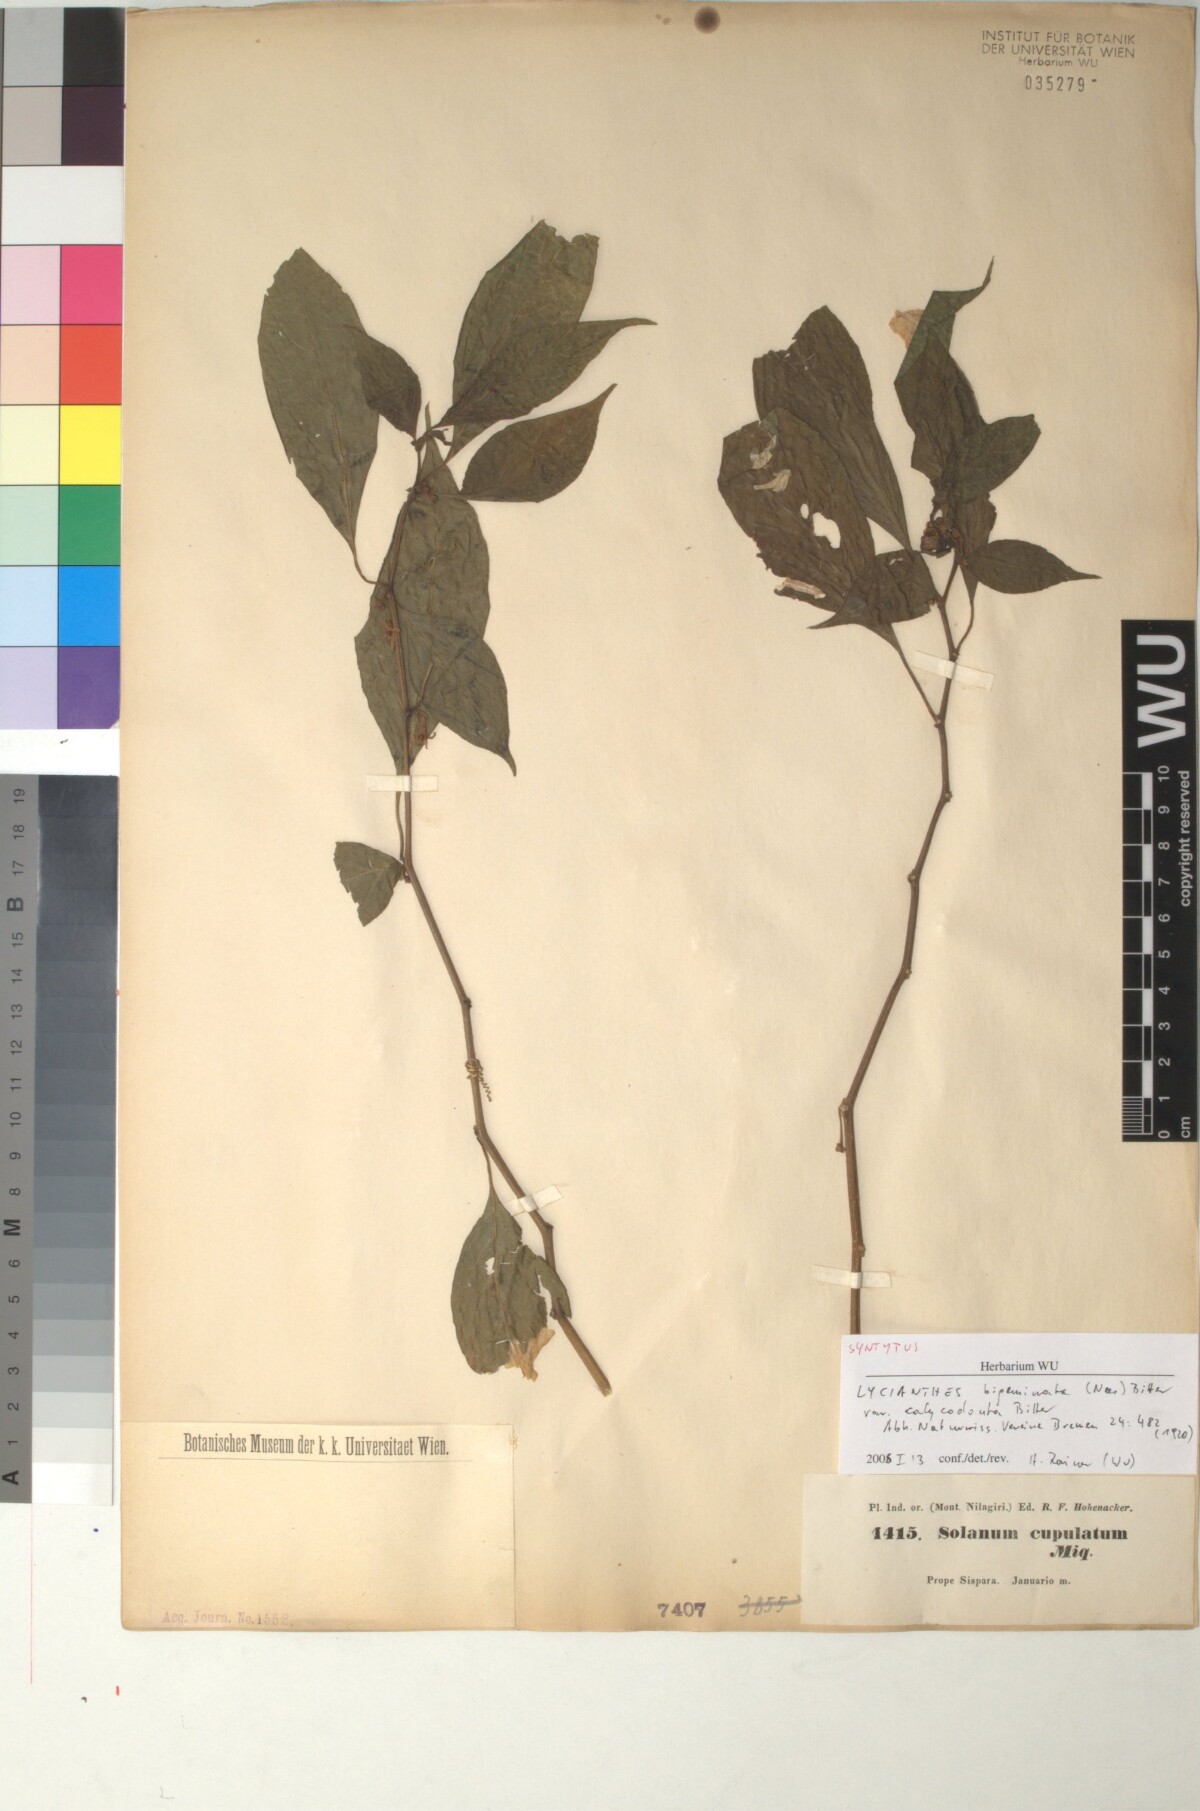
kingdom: Plantae
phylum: Tracheophyta
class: Magnoliopsida
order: Solanales
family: Solanaceae
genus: Lycianthes
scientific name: Lycianthes laevis
